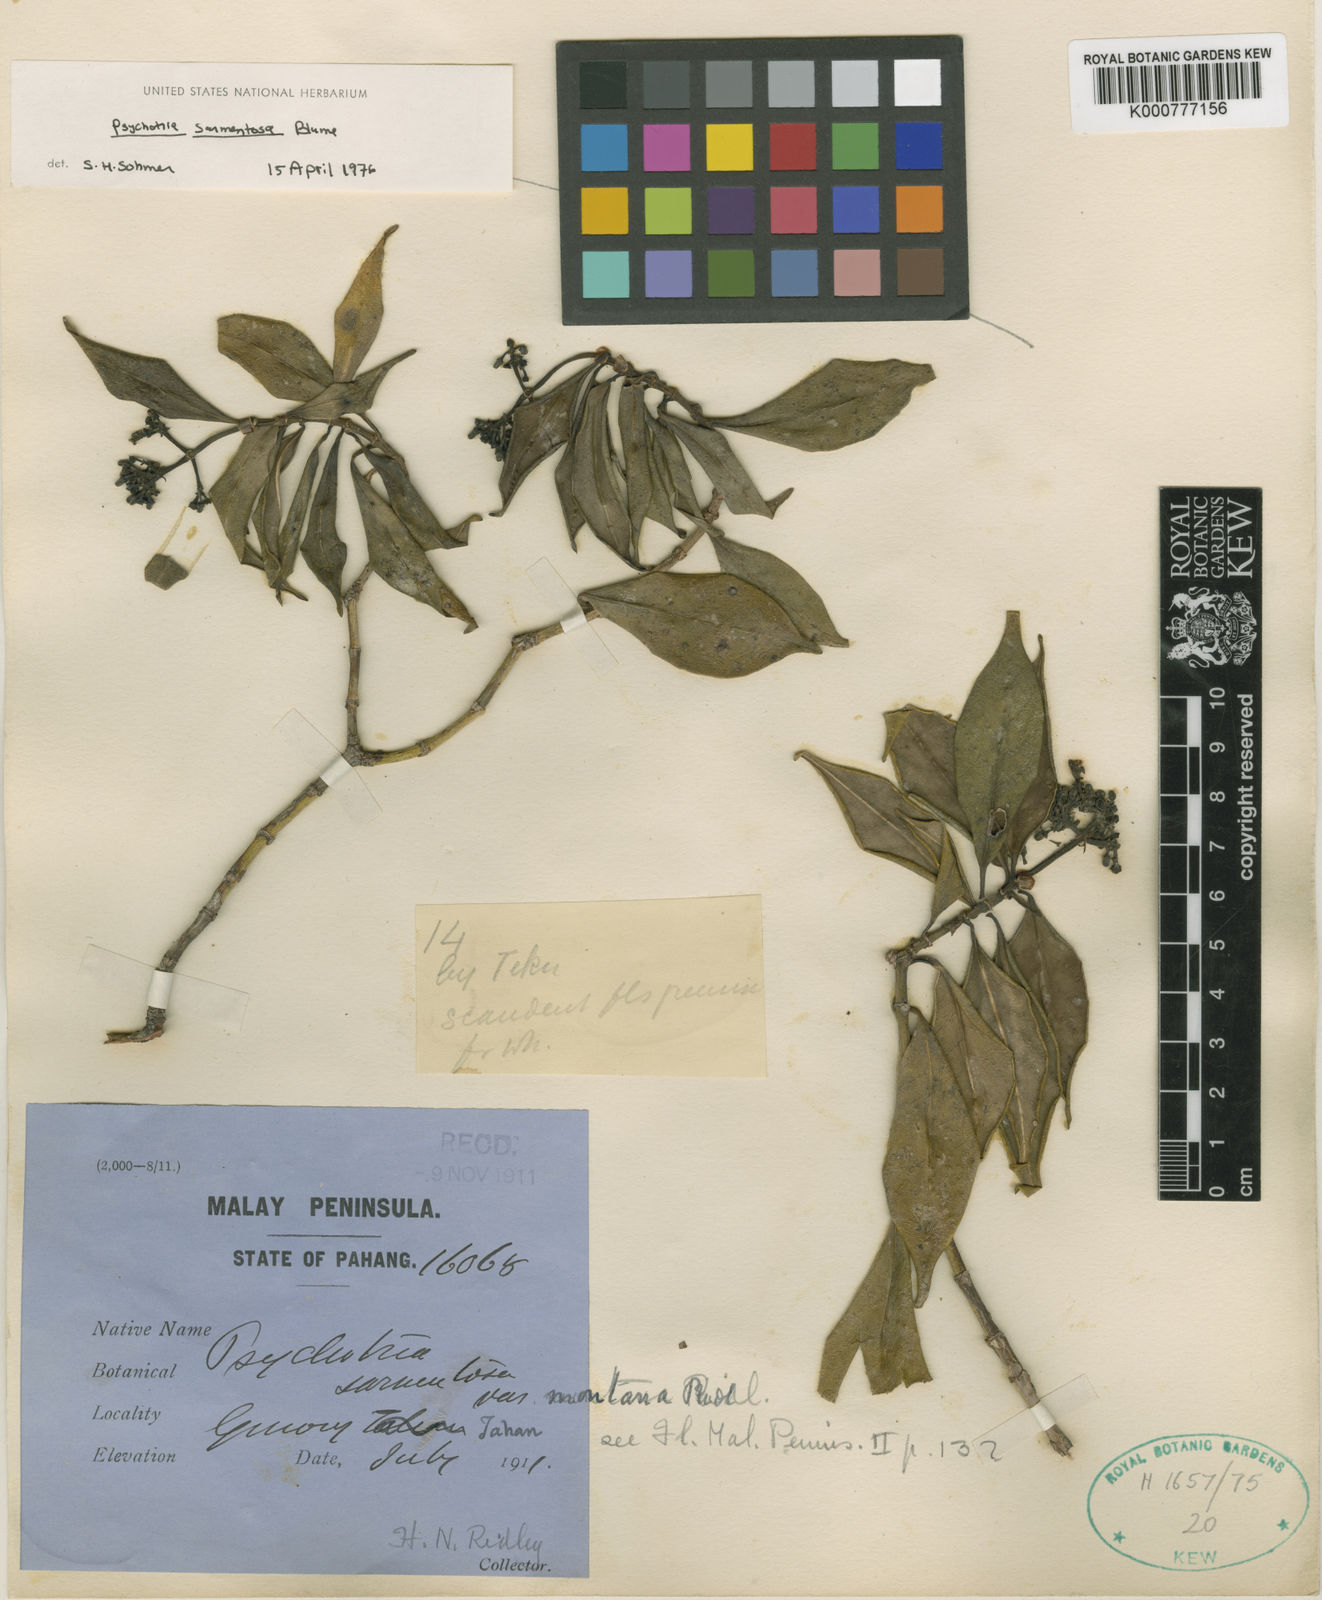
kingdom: Plantae
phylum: Tracheophyta
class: Magnoliopsida
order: Gentianales
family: Rubiaceae
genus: Psychotria
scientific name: Psychotria euosma
